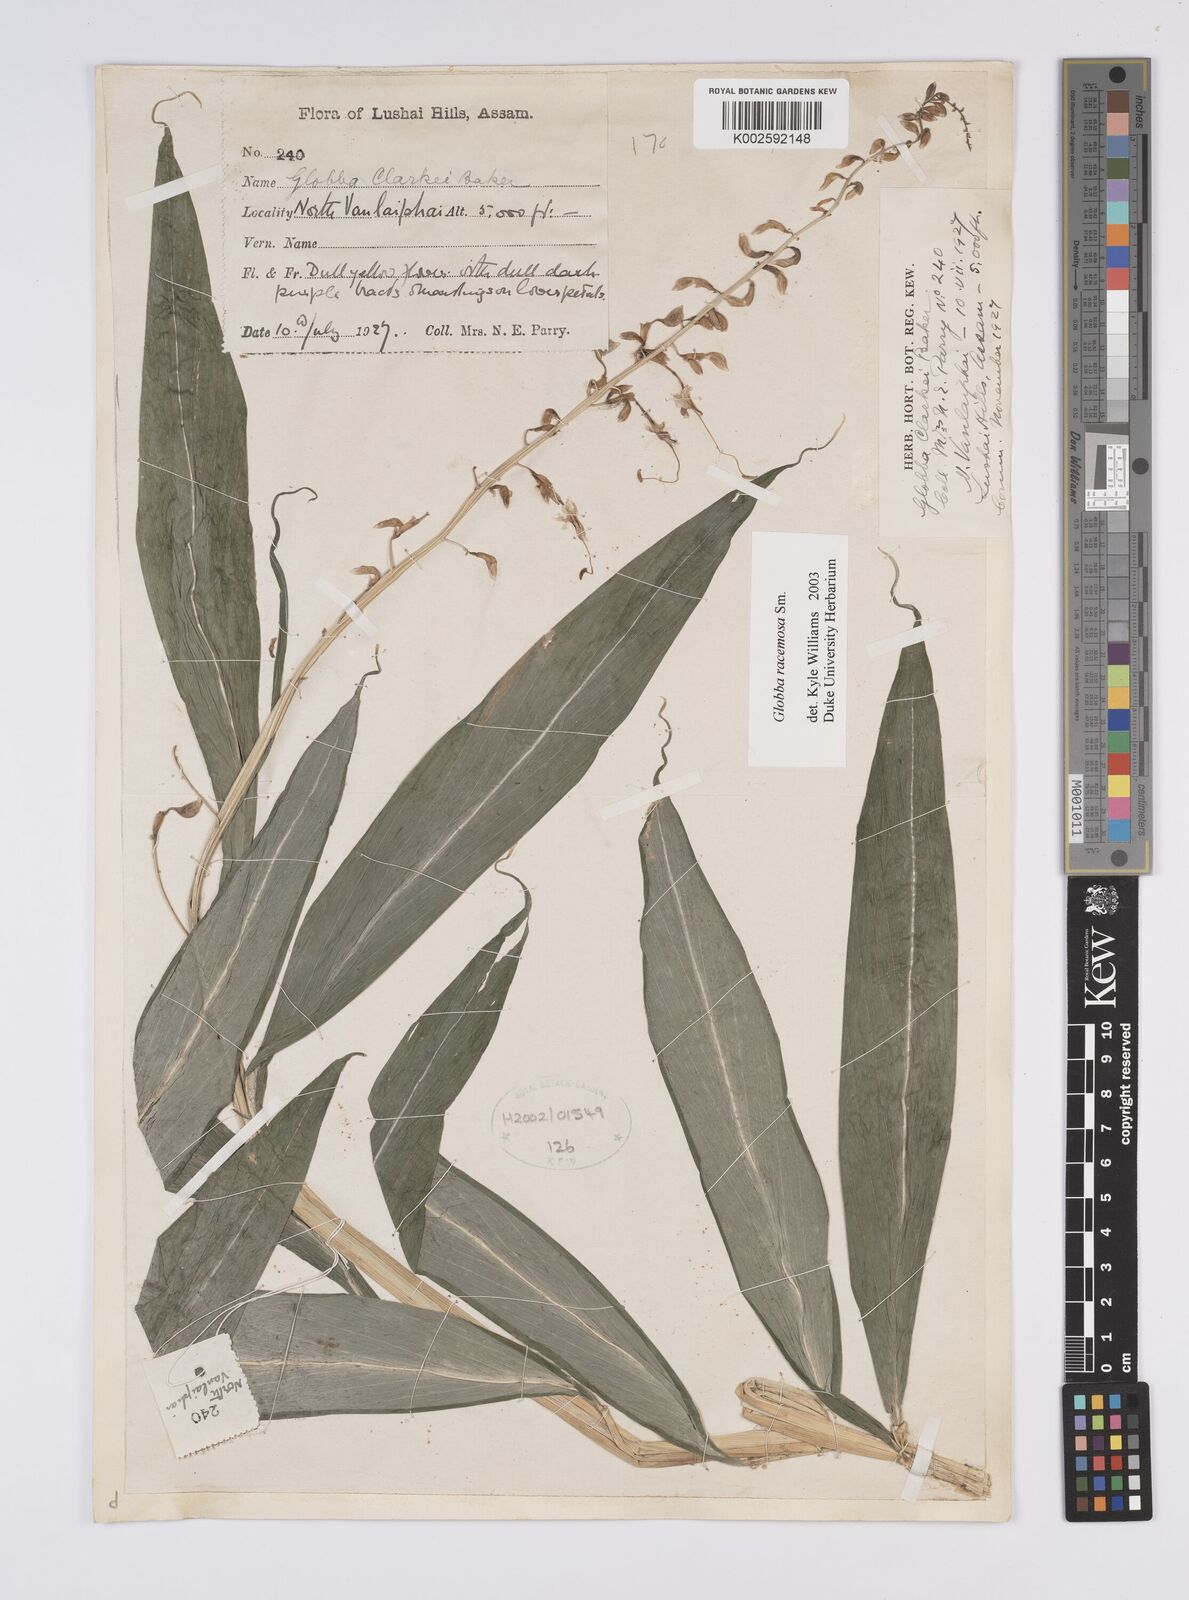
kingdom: Plantae
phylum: Tracheophyta
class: Liliopsida
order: Zingiberales
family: Zingiberaceae
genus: Globba
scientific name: Globba racemosa
